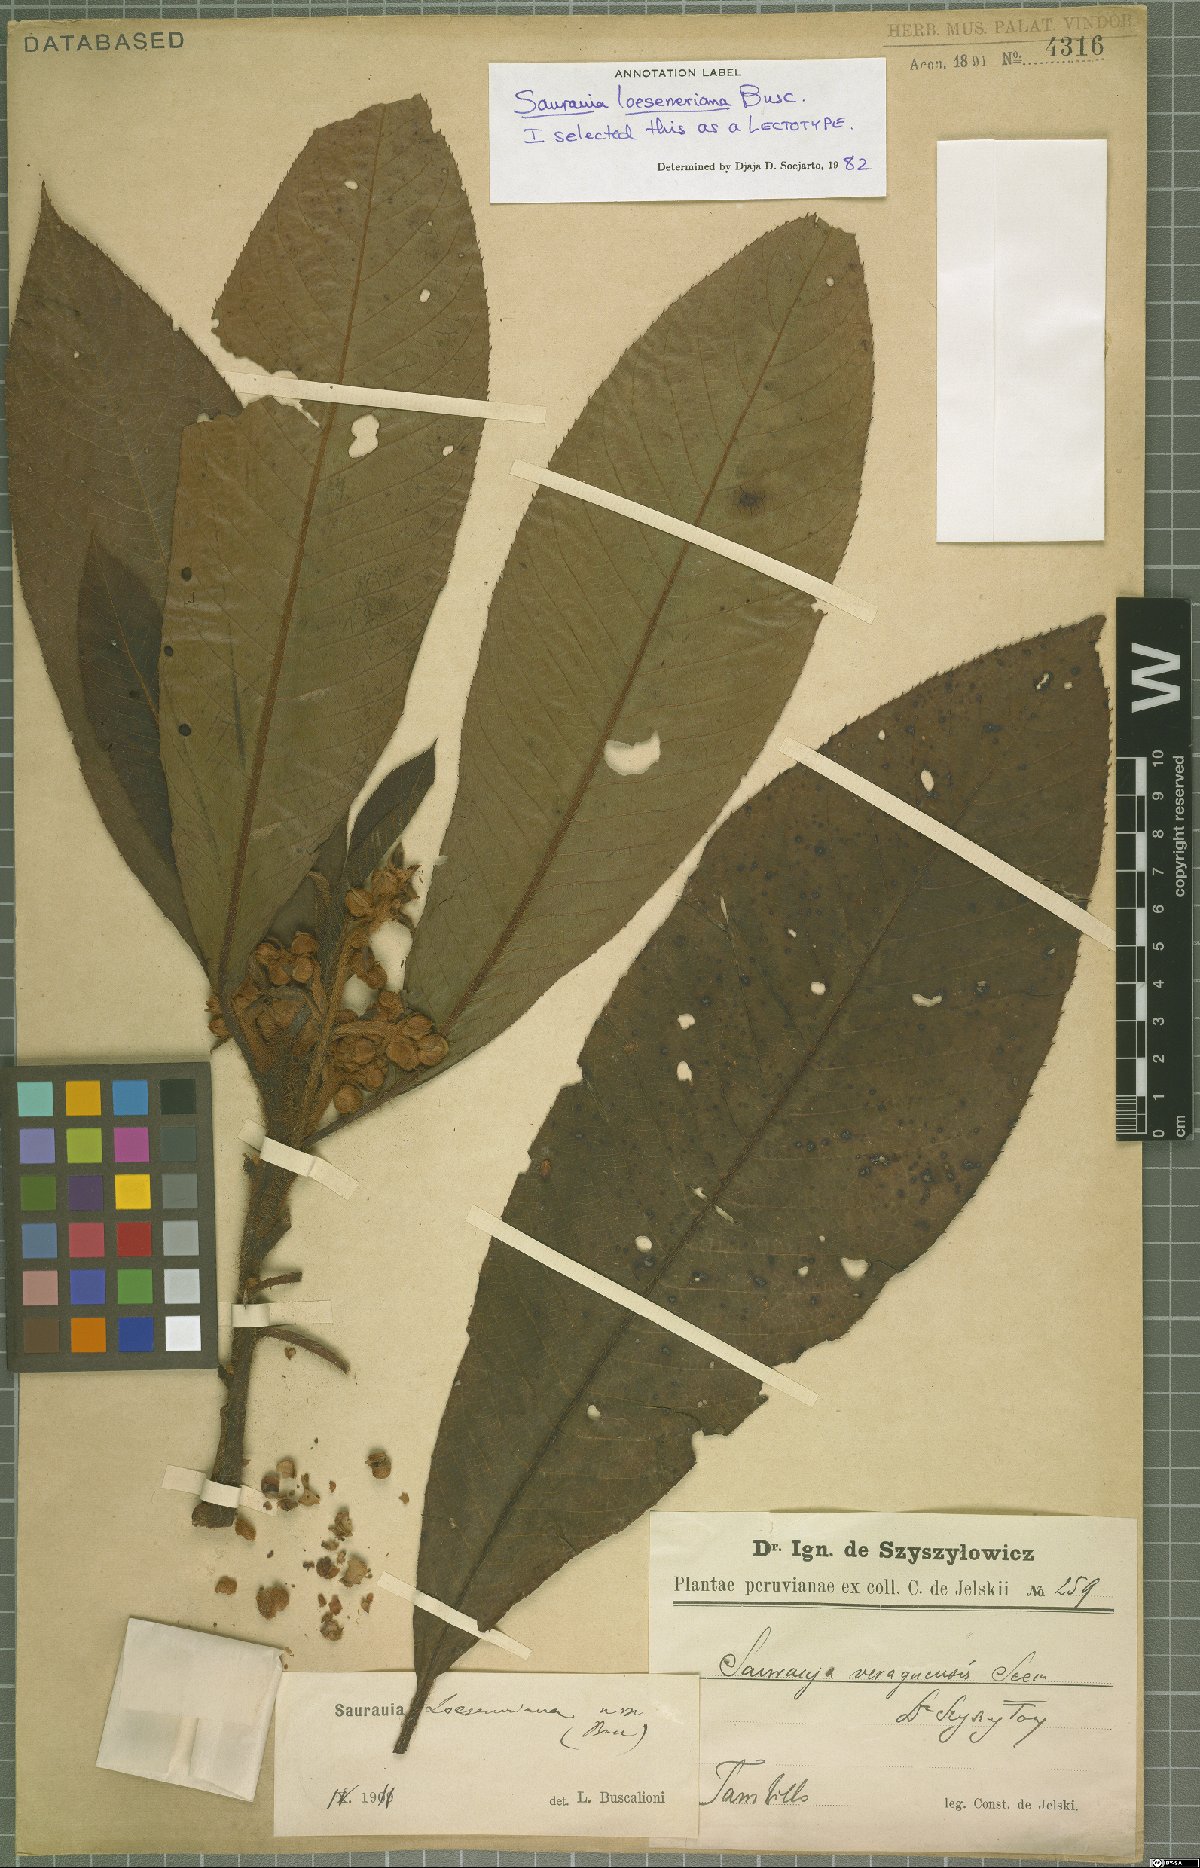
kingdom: Plantae
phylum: Tracheophyta
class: Magnoliopsida
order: Ericales
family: Actinidiaceae
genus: Saurauia
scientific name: Saurauia loeseneriana
